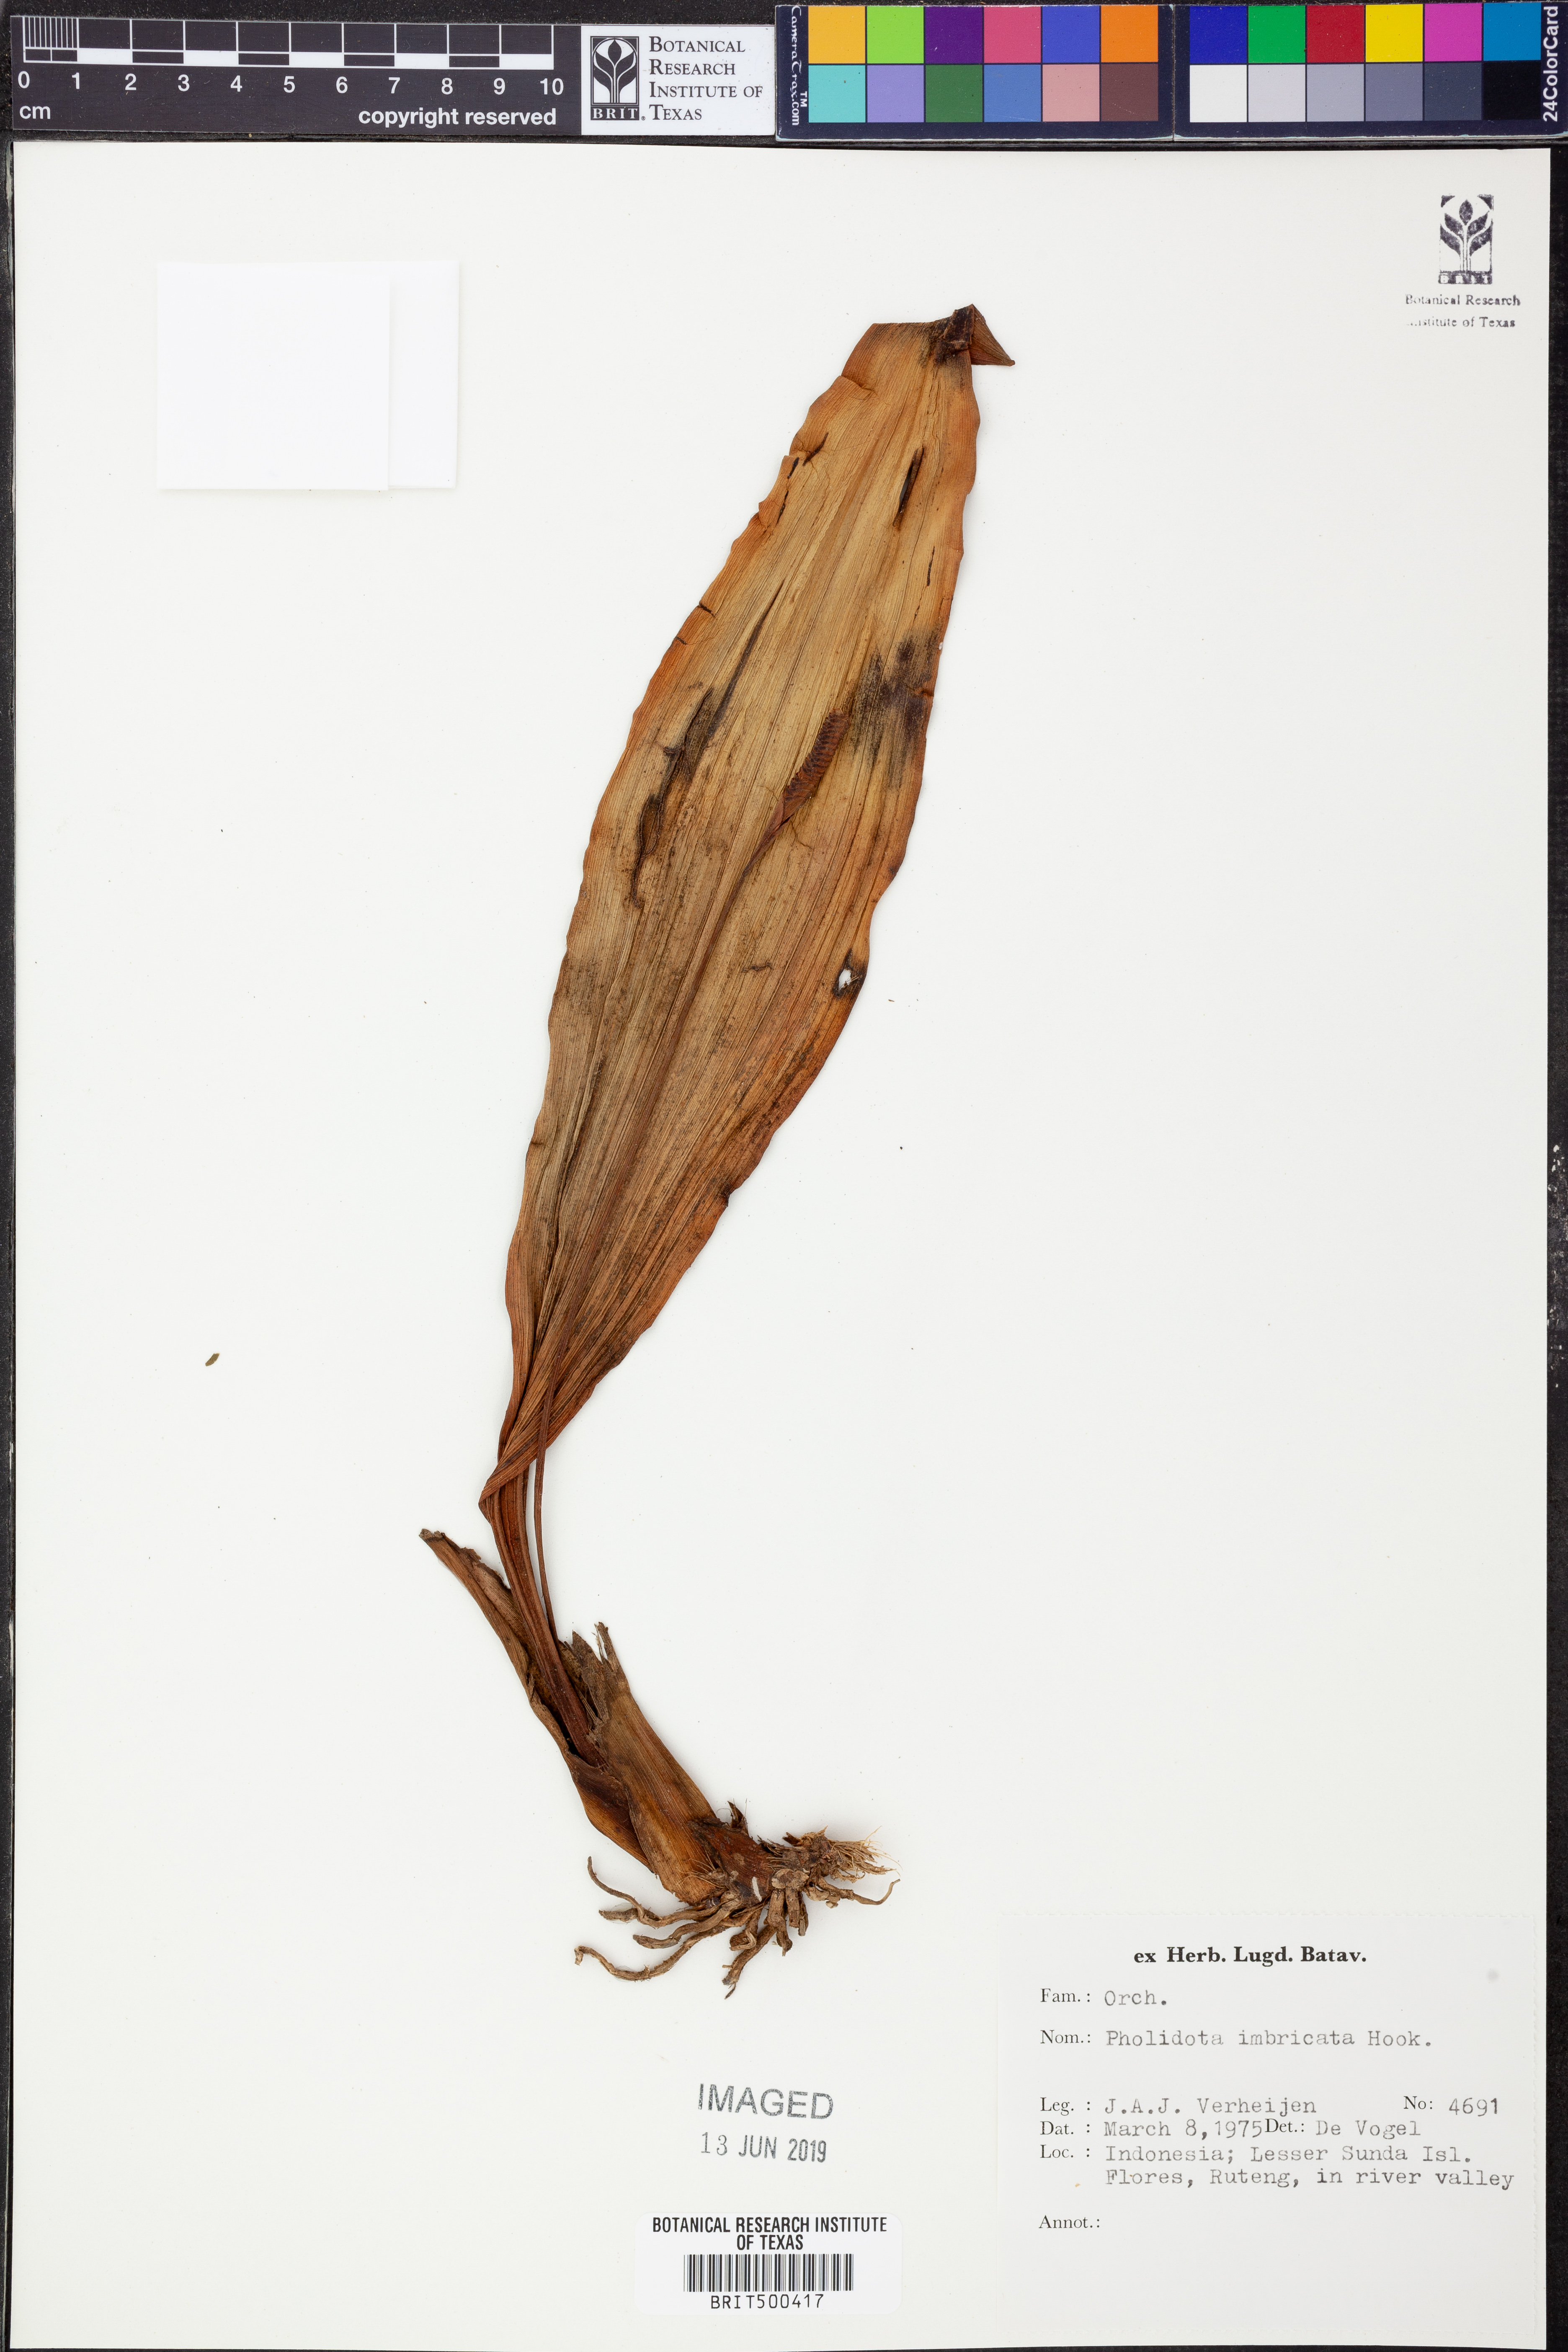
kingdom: Plantae
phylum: Tracheophyta
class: Liliopsida
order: Asparagales
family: Orchidaceae
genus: Pholidota
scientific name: Pholidota imbricata
